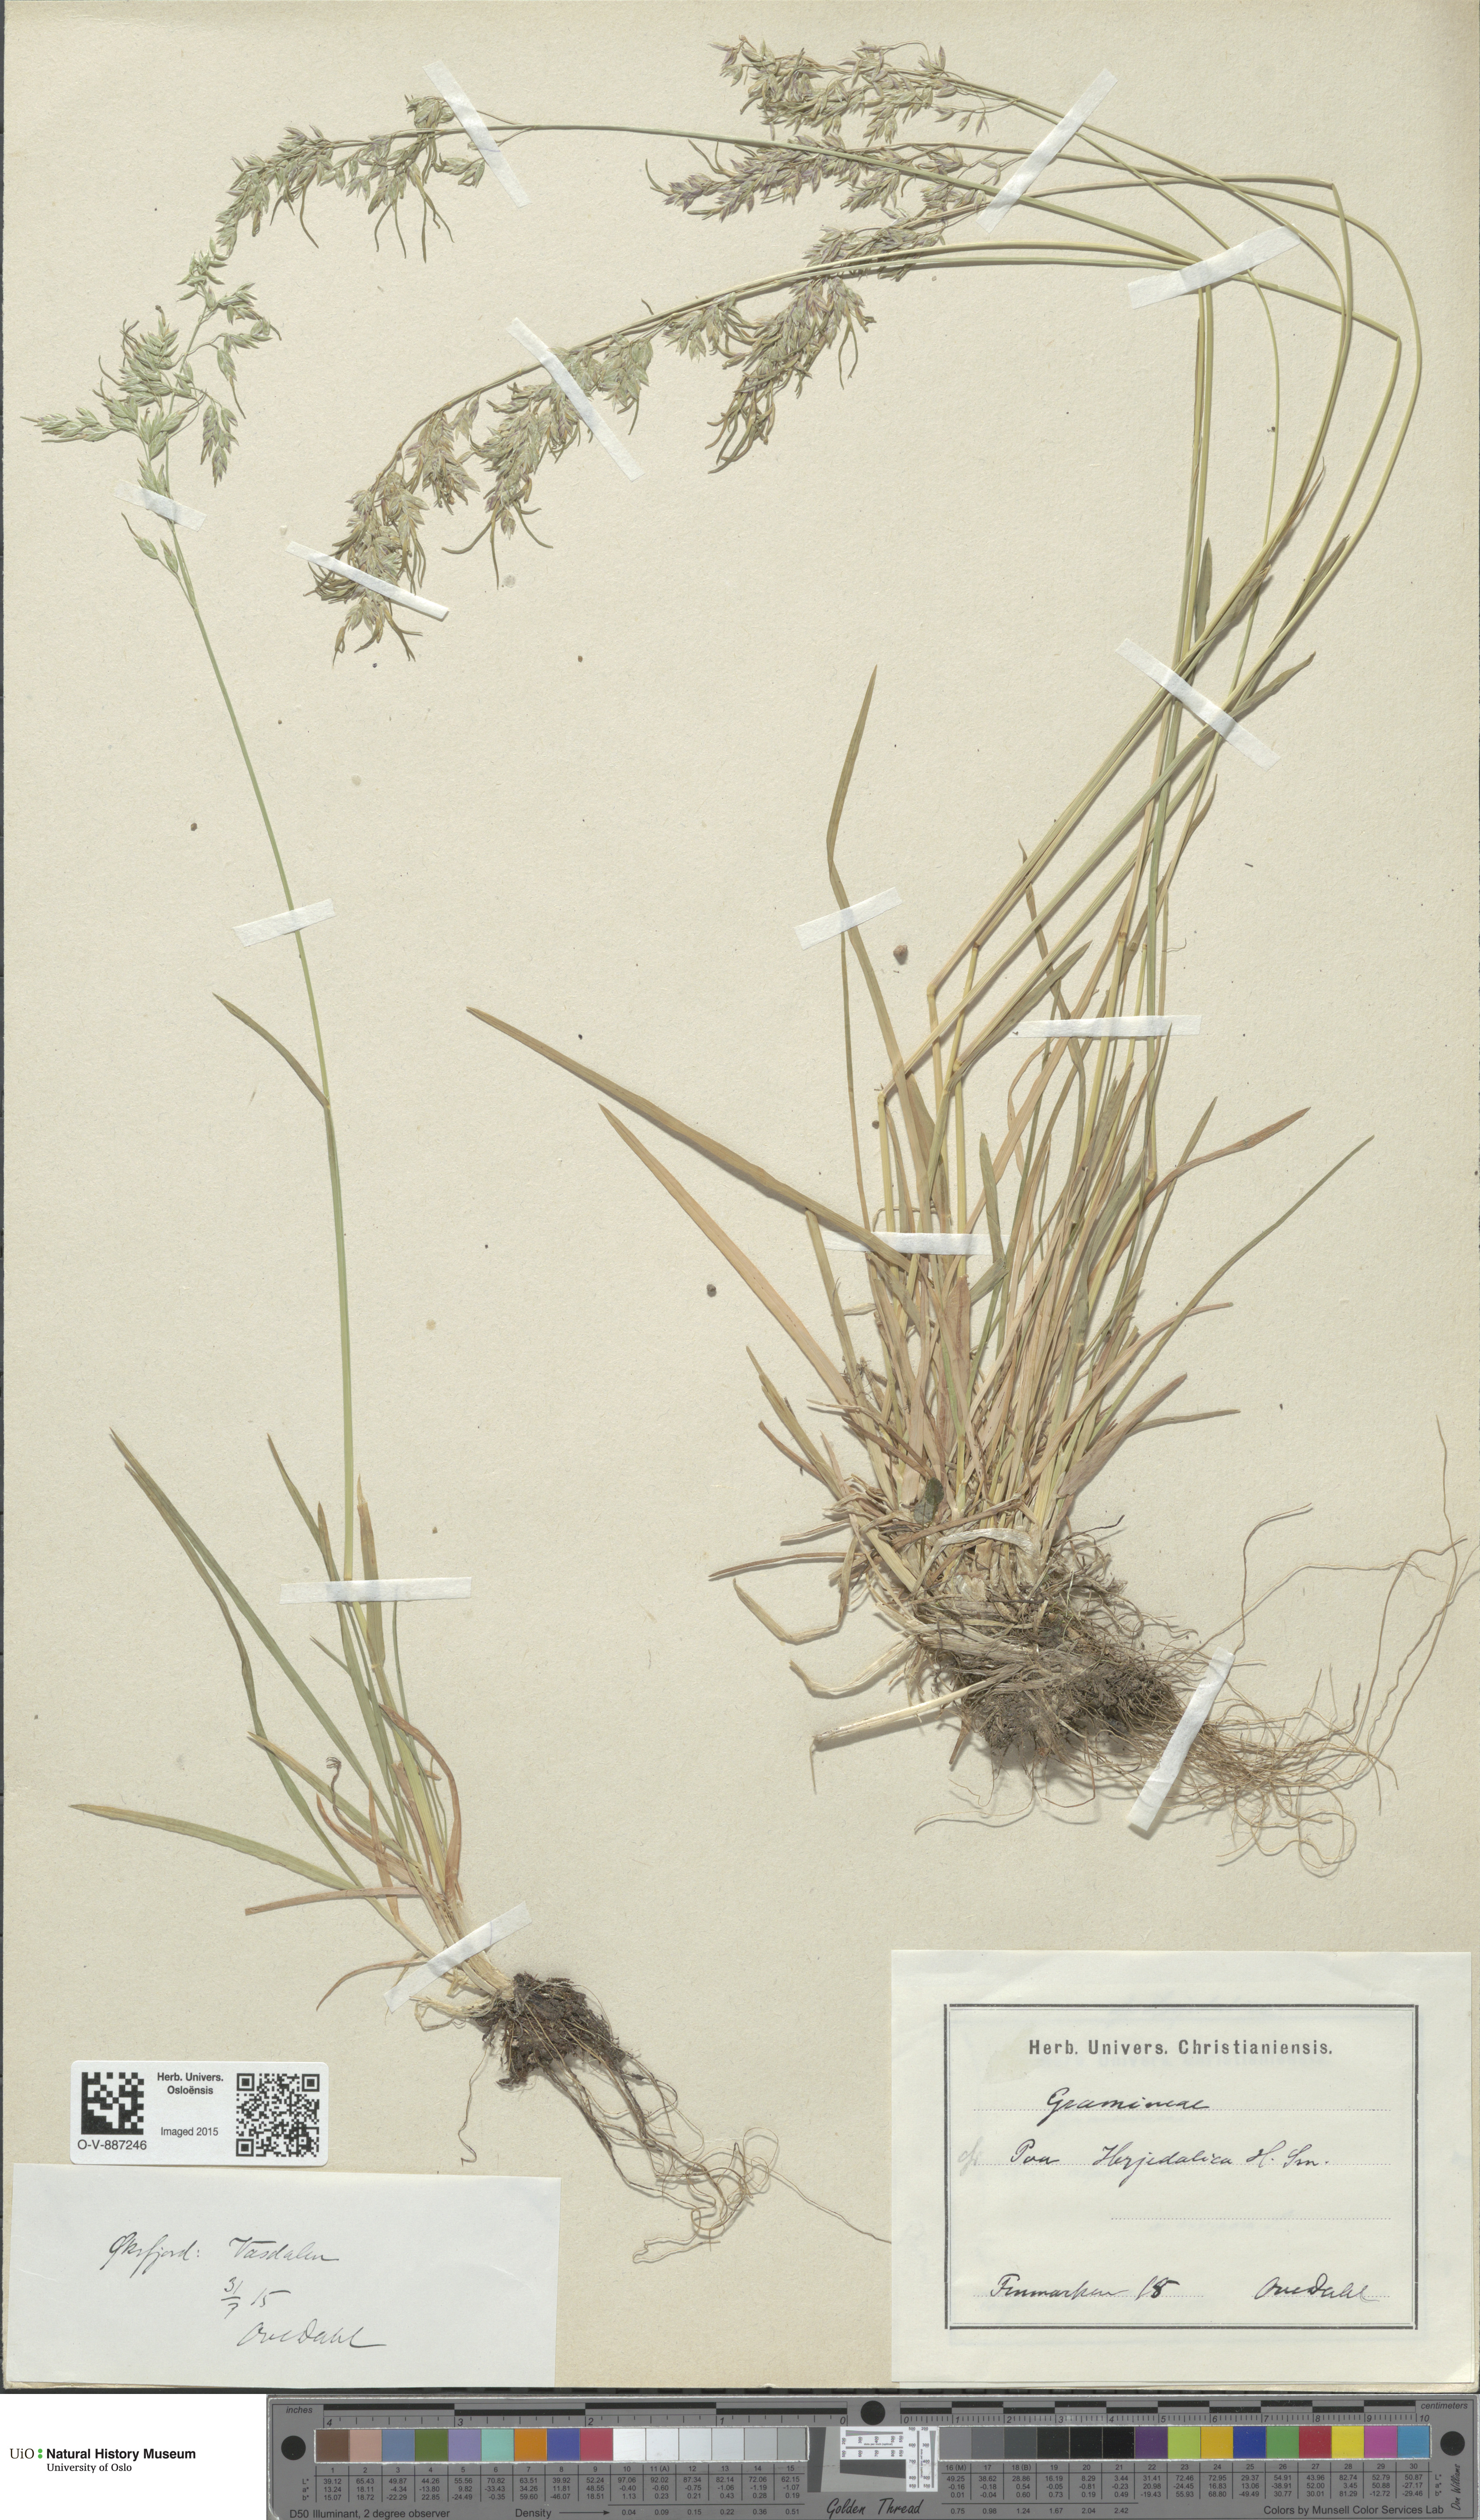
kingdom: Plantae
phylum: Tracheophyta
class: Liliopsida
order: Poales
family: Poaceae
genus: Poa
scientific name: Poa herjedalica
